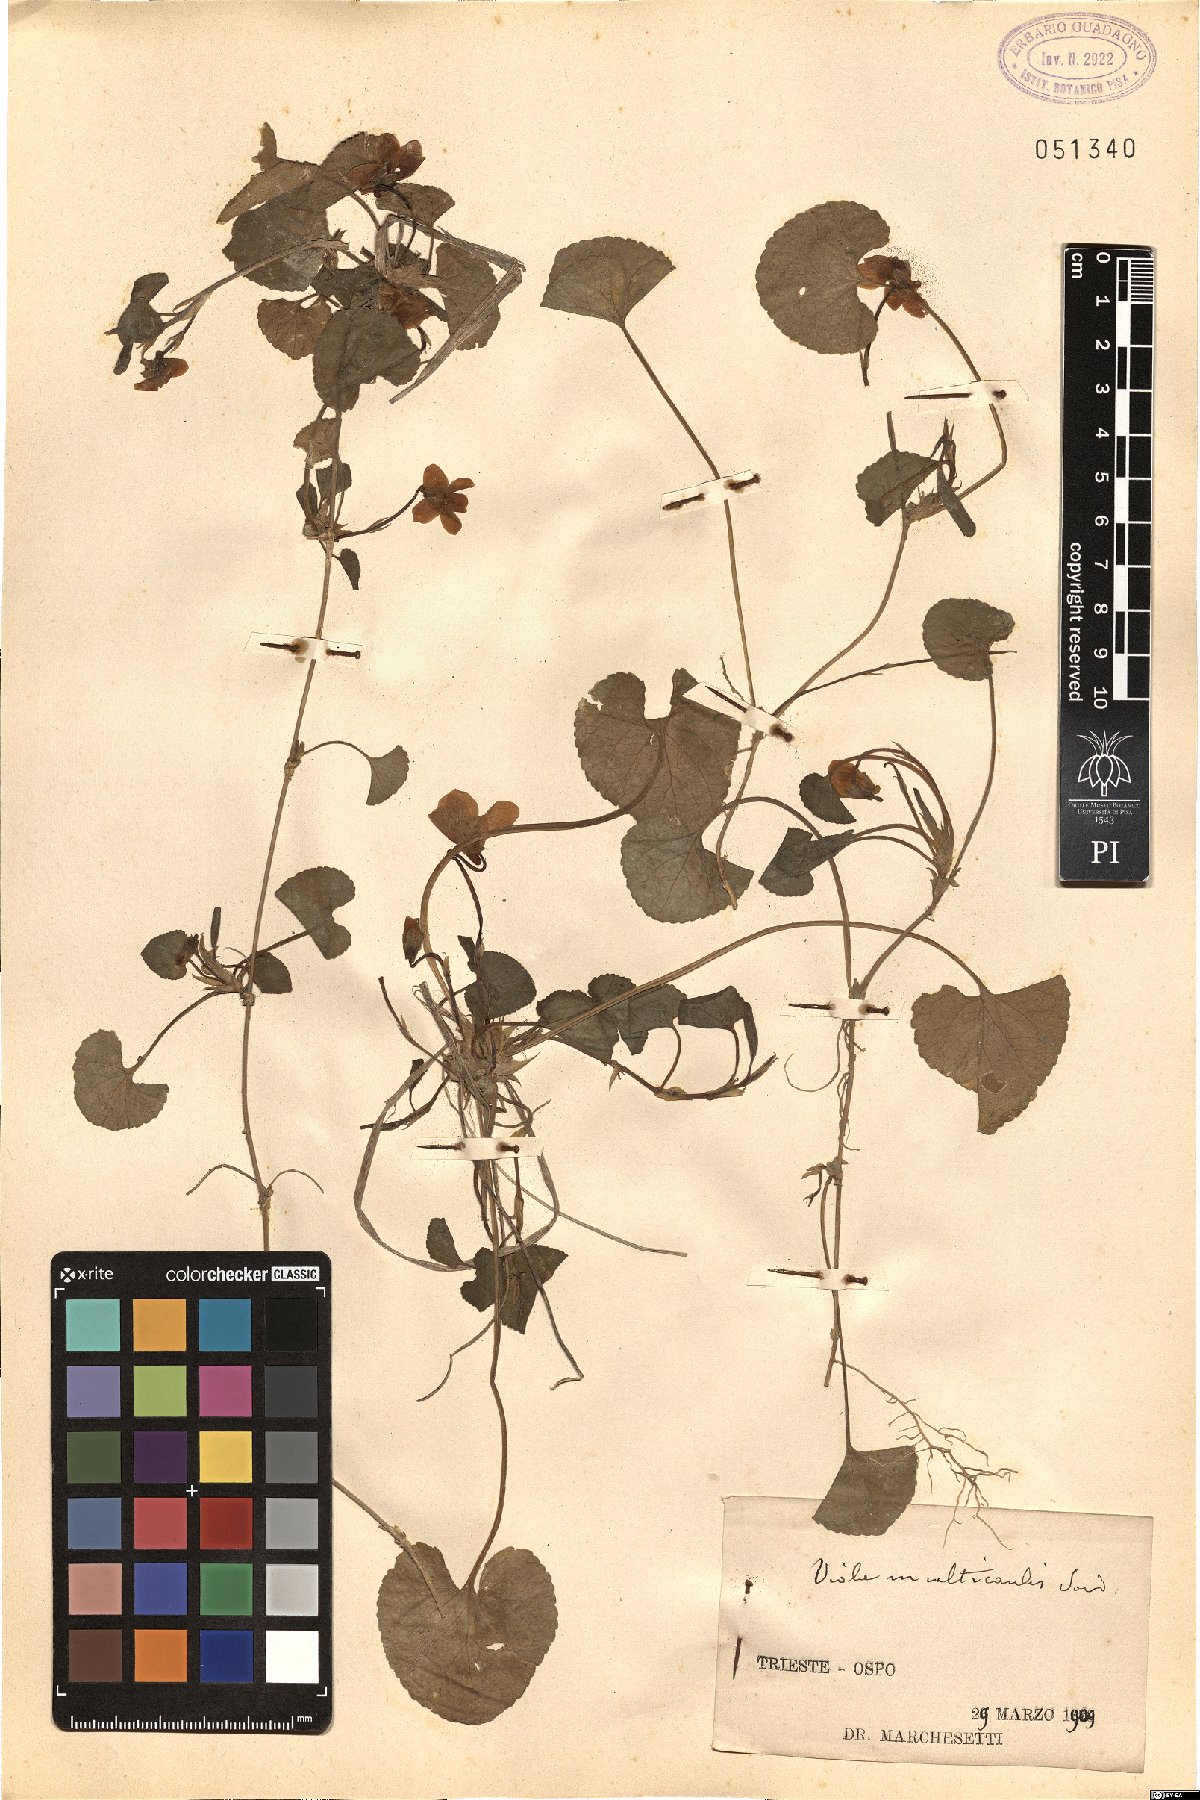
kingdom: Plantae
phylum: Tracheophyta
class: Magnoliopsida
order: Malpighiales
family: Violaceae
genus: Viola
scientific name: Viola basilensis
